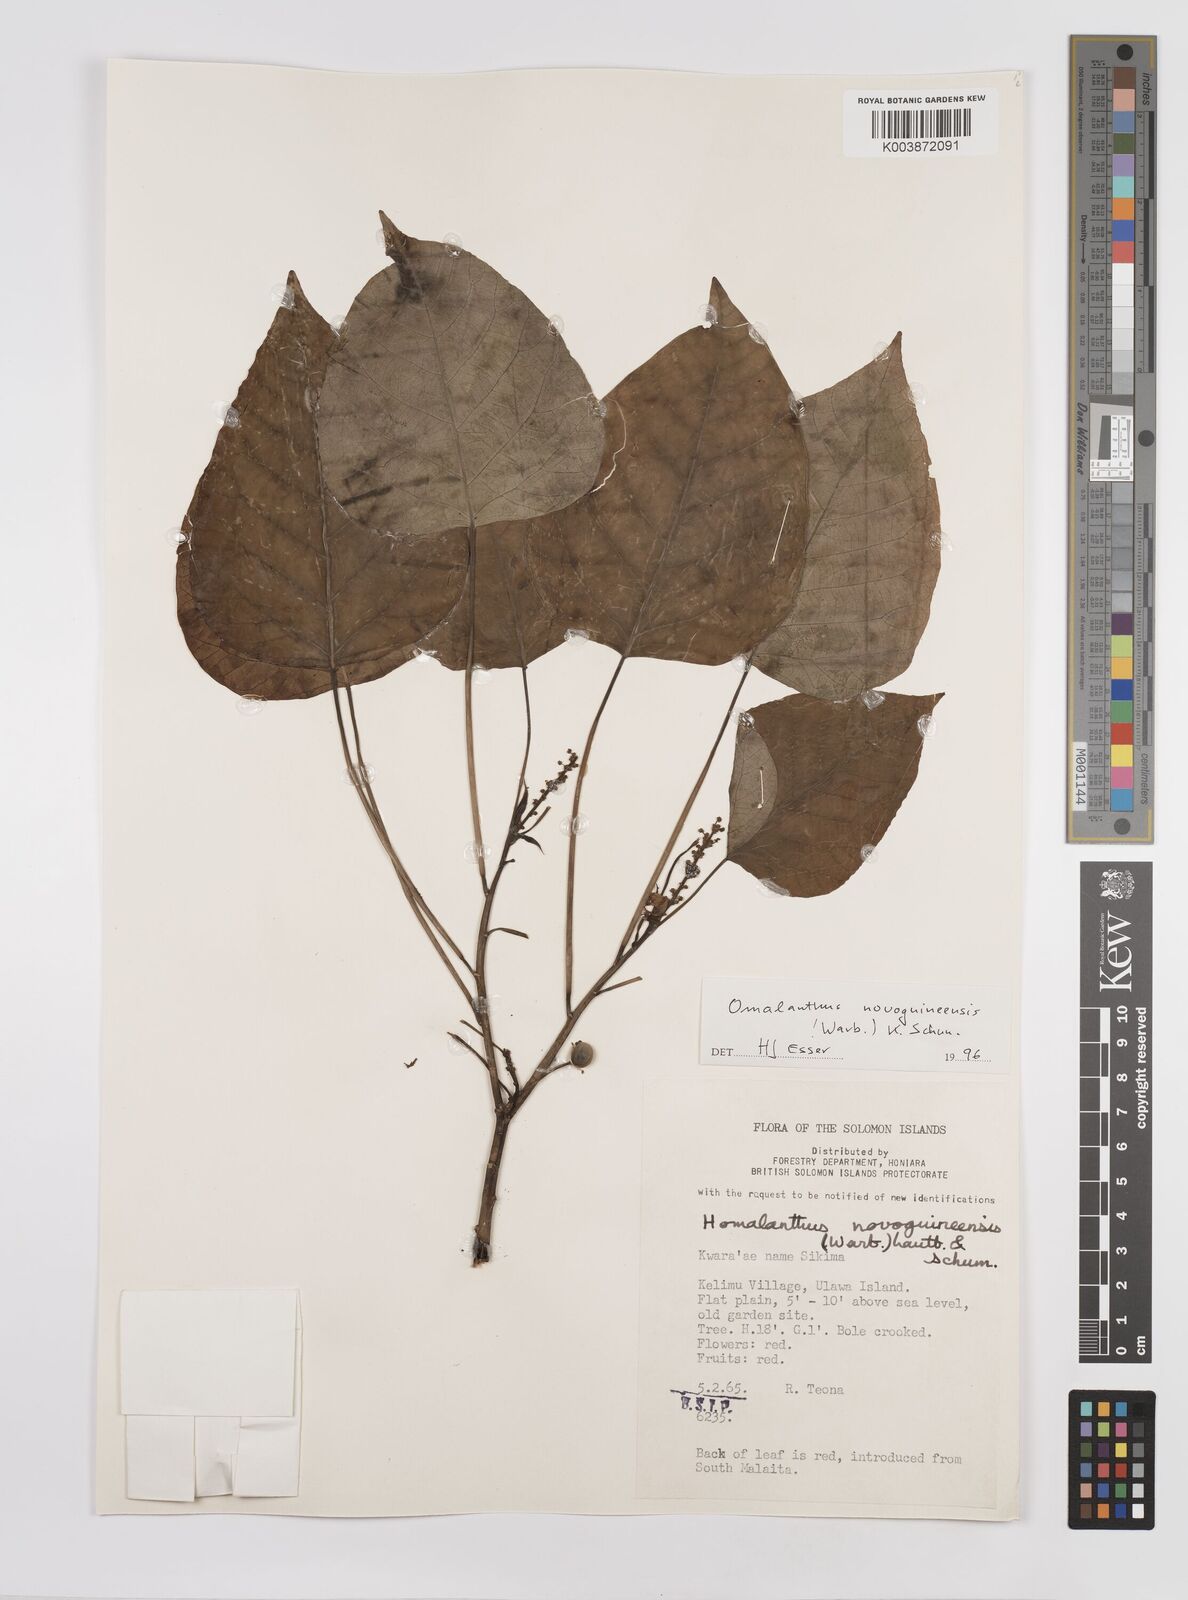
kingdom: Plantae
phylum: Tracheophyta
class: Magnoliopsida
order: Malpighiales
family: Euphorbiaceae
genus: Homalanthus
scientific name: Homalanthus novoguineensis
